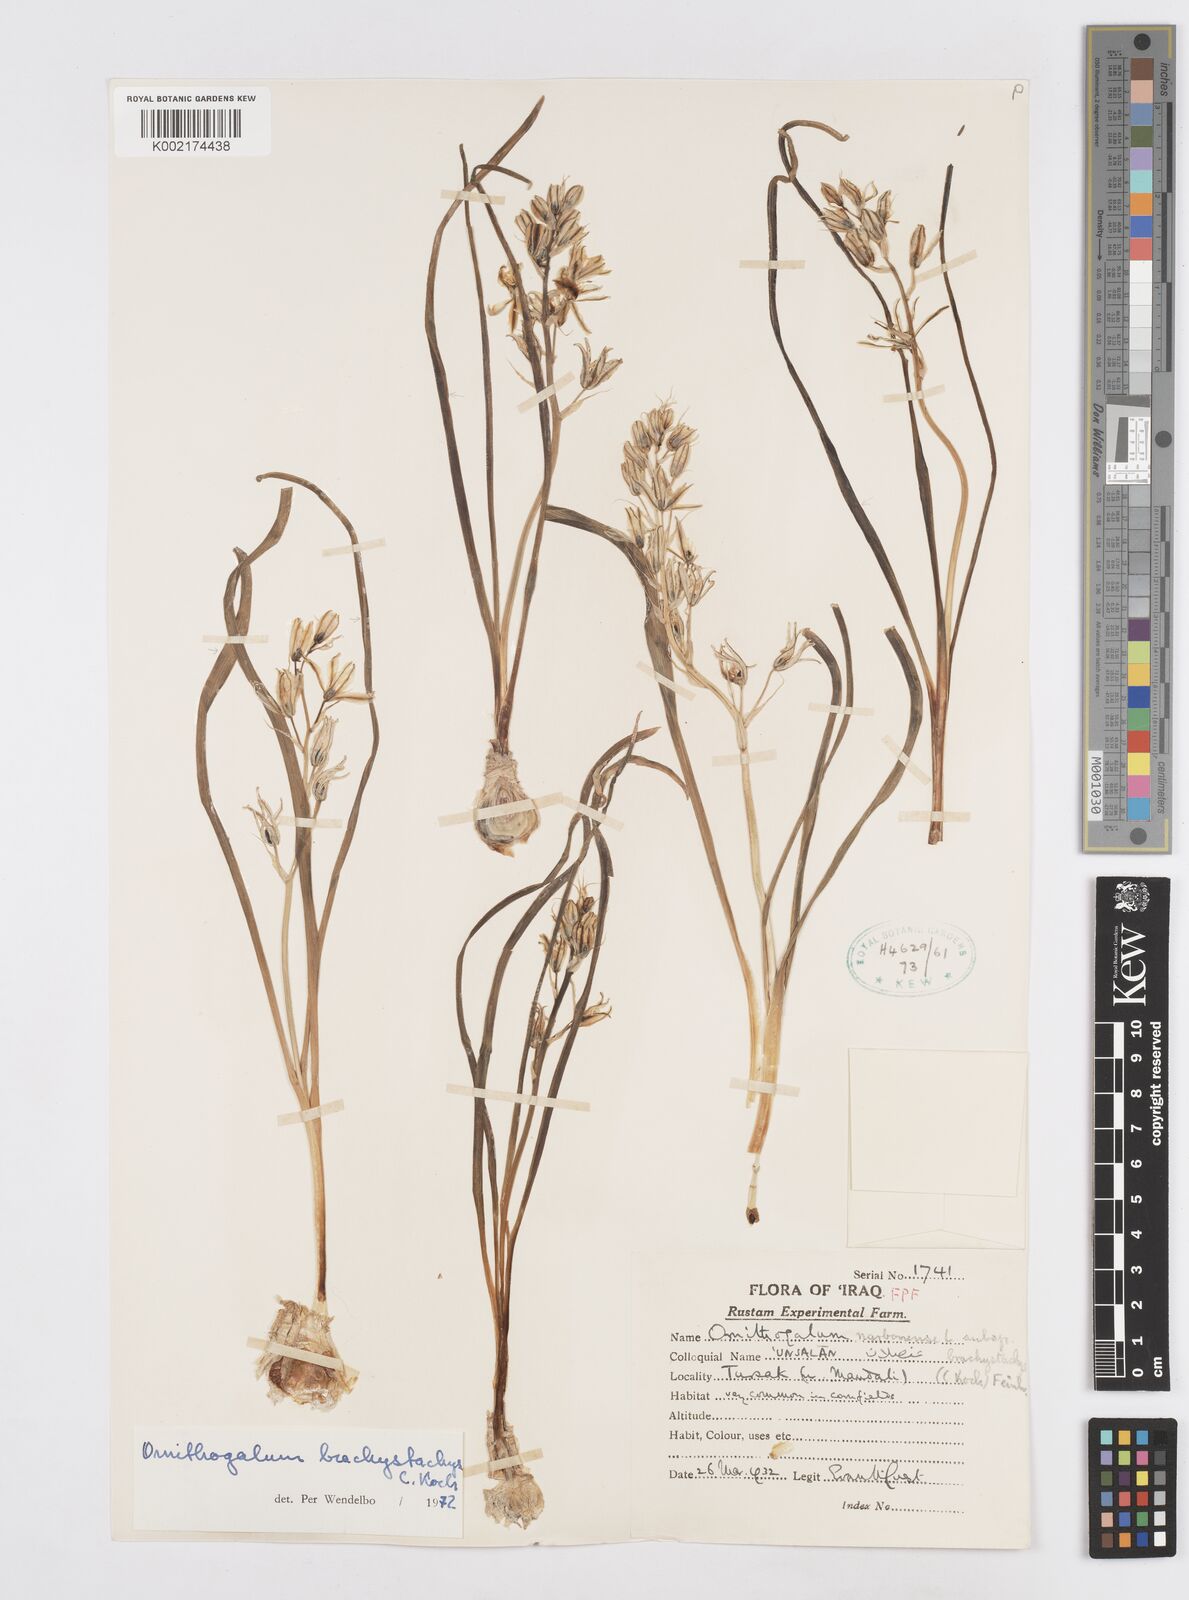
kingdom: Plantae
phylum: Tracheophyta
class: Liliopsida
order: Asparagales
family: Asparagaceae
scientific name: Asparagaceae
